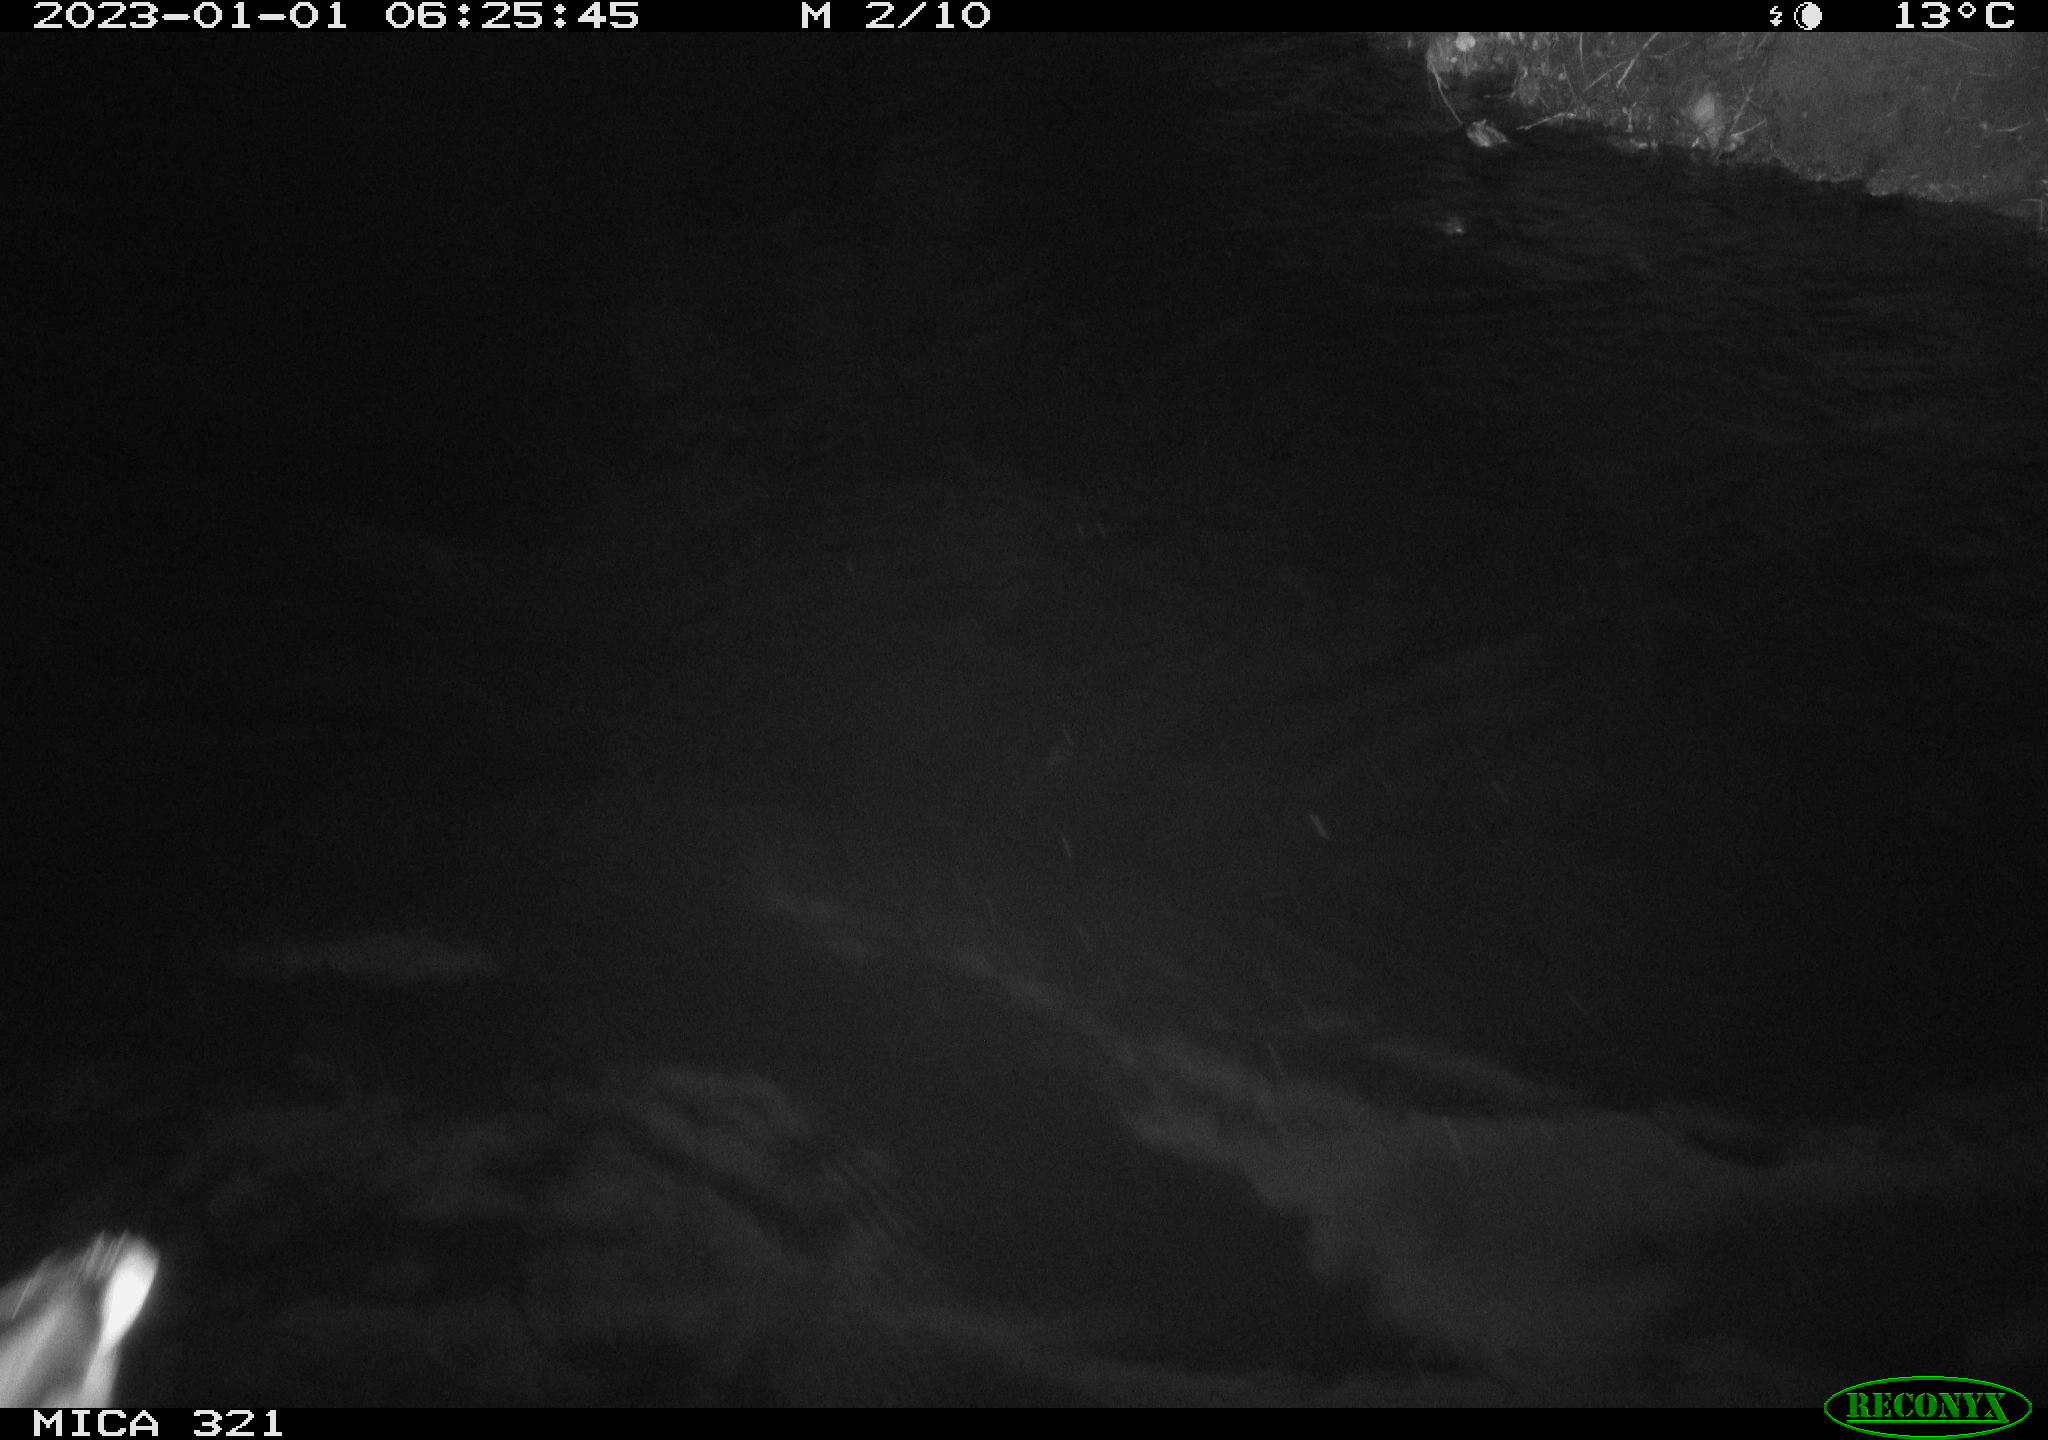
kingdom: Animalia
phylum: Chordata
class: Mammalia
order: Rodentia
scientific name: Rodentia
